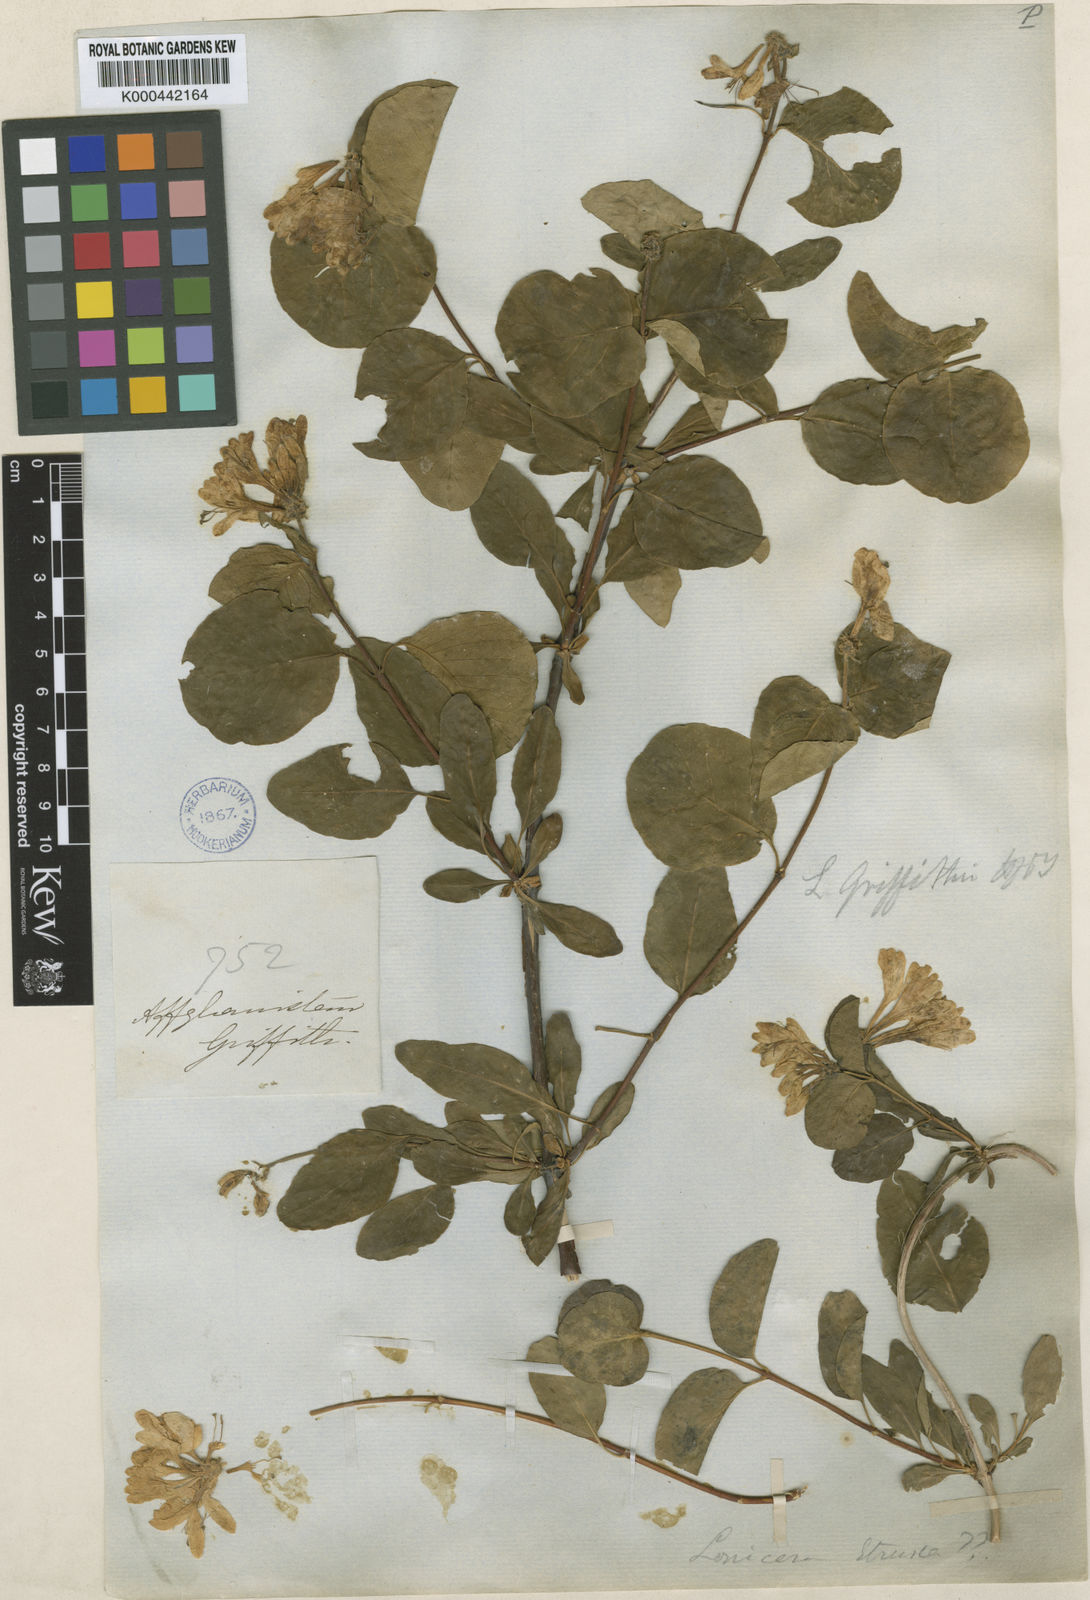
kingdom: Plantae
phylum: Tracheophyta
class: Magnoliopsida
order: Dipsacales
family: Caprifoliaceae
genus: Lonicera
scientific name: Lonicera griffithii
